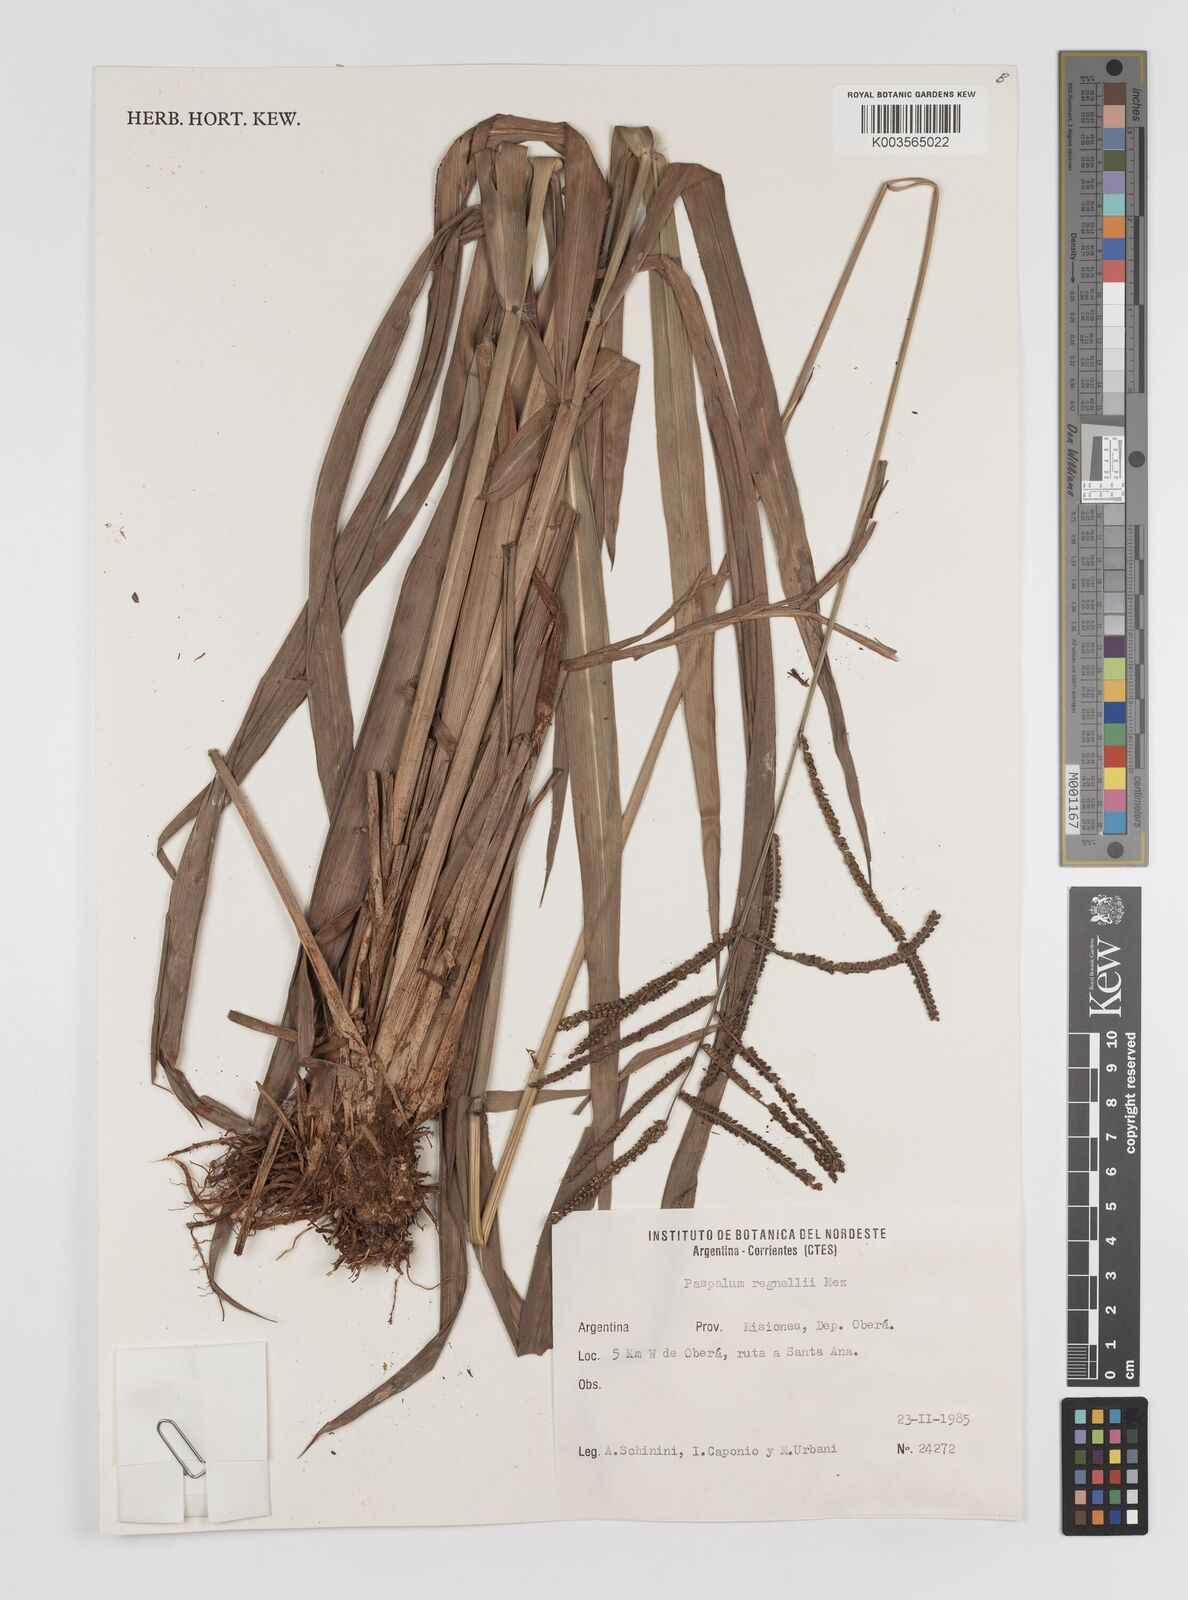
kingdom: Plantae
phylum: Tracheophyta
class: Liliopsida
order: Poales
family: Poaceae
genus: Paspalum
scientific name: Paspalum regnellii
